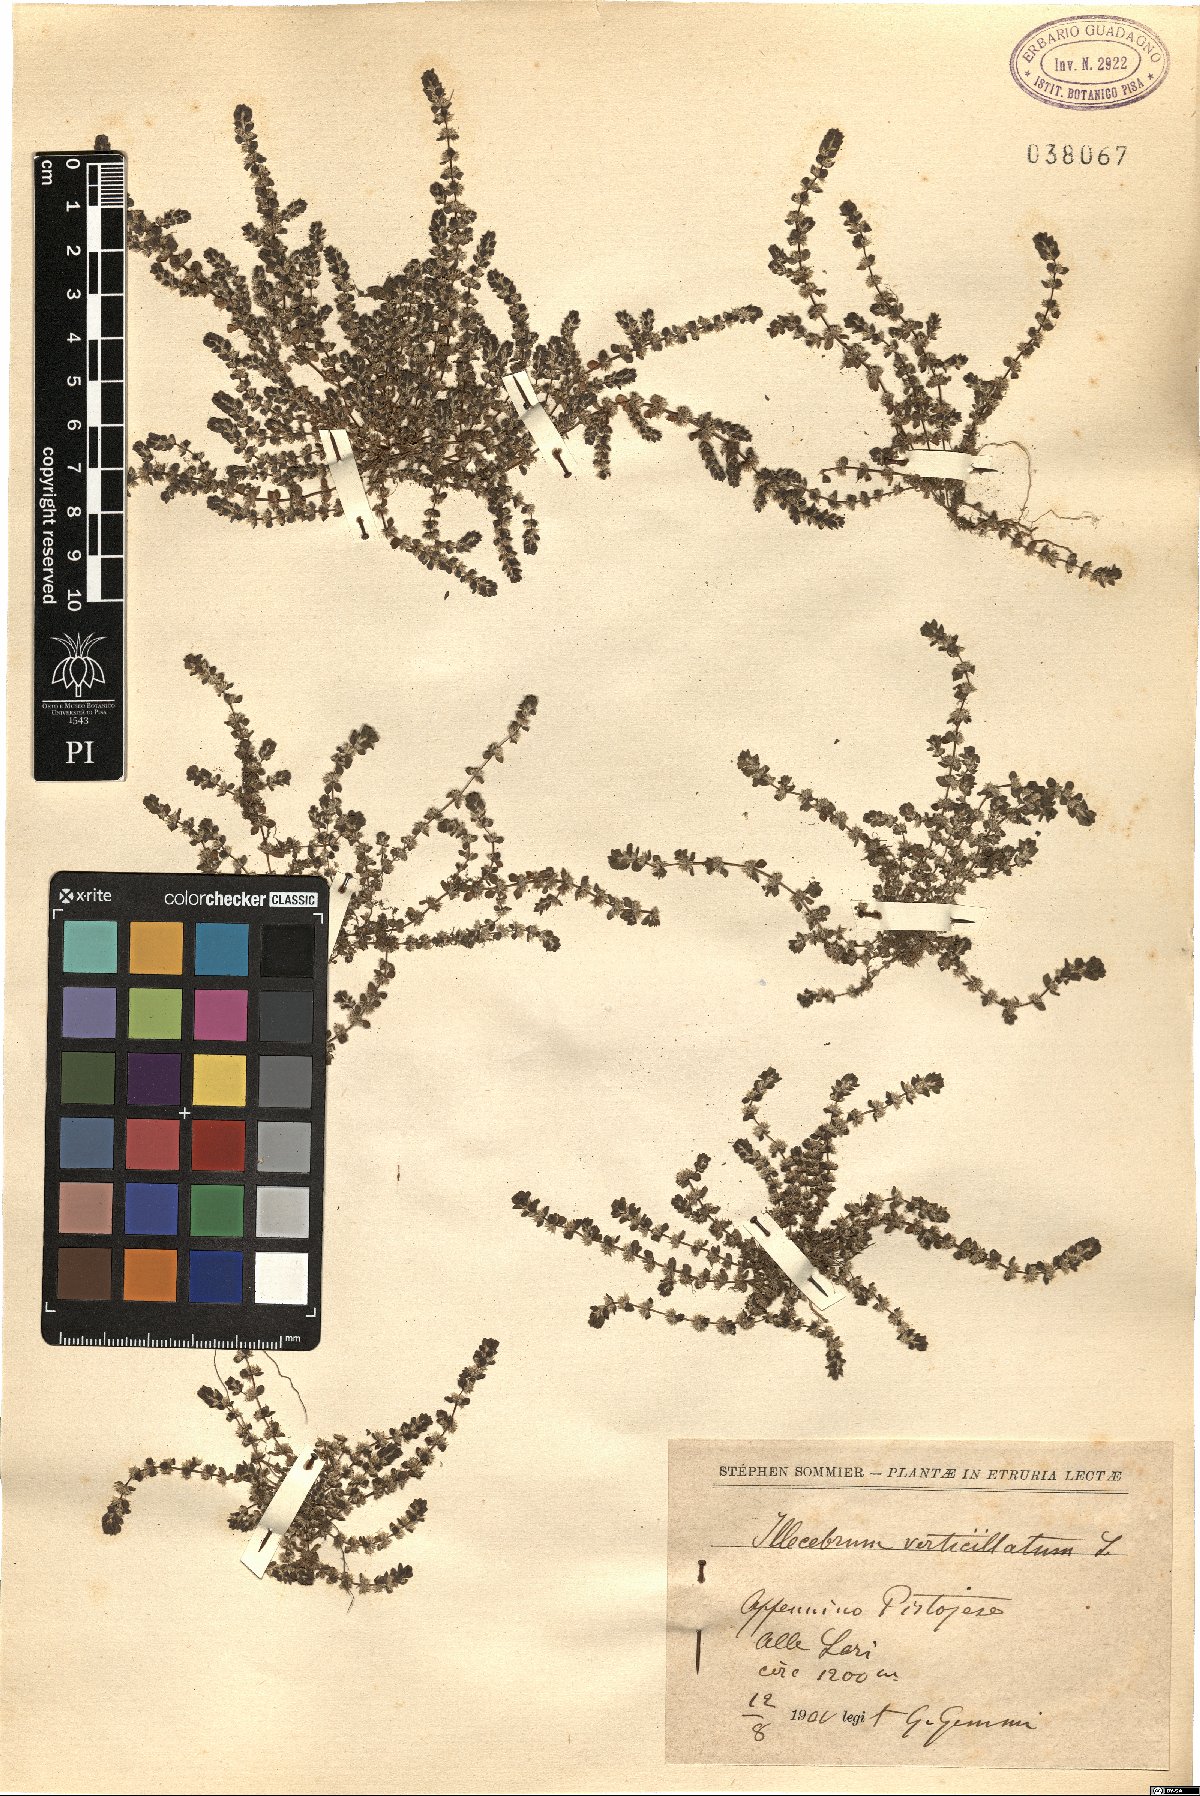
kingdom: Plantae
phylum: Tracheophyta
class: Magnoliopsida
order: Caryophyllales
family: Caryophyllaceae
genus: Illecebrum
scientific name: Illecebrum verticillatum
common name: Coral necklace
